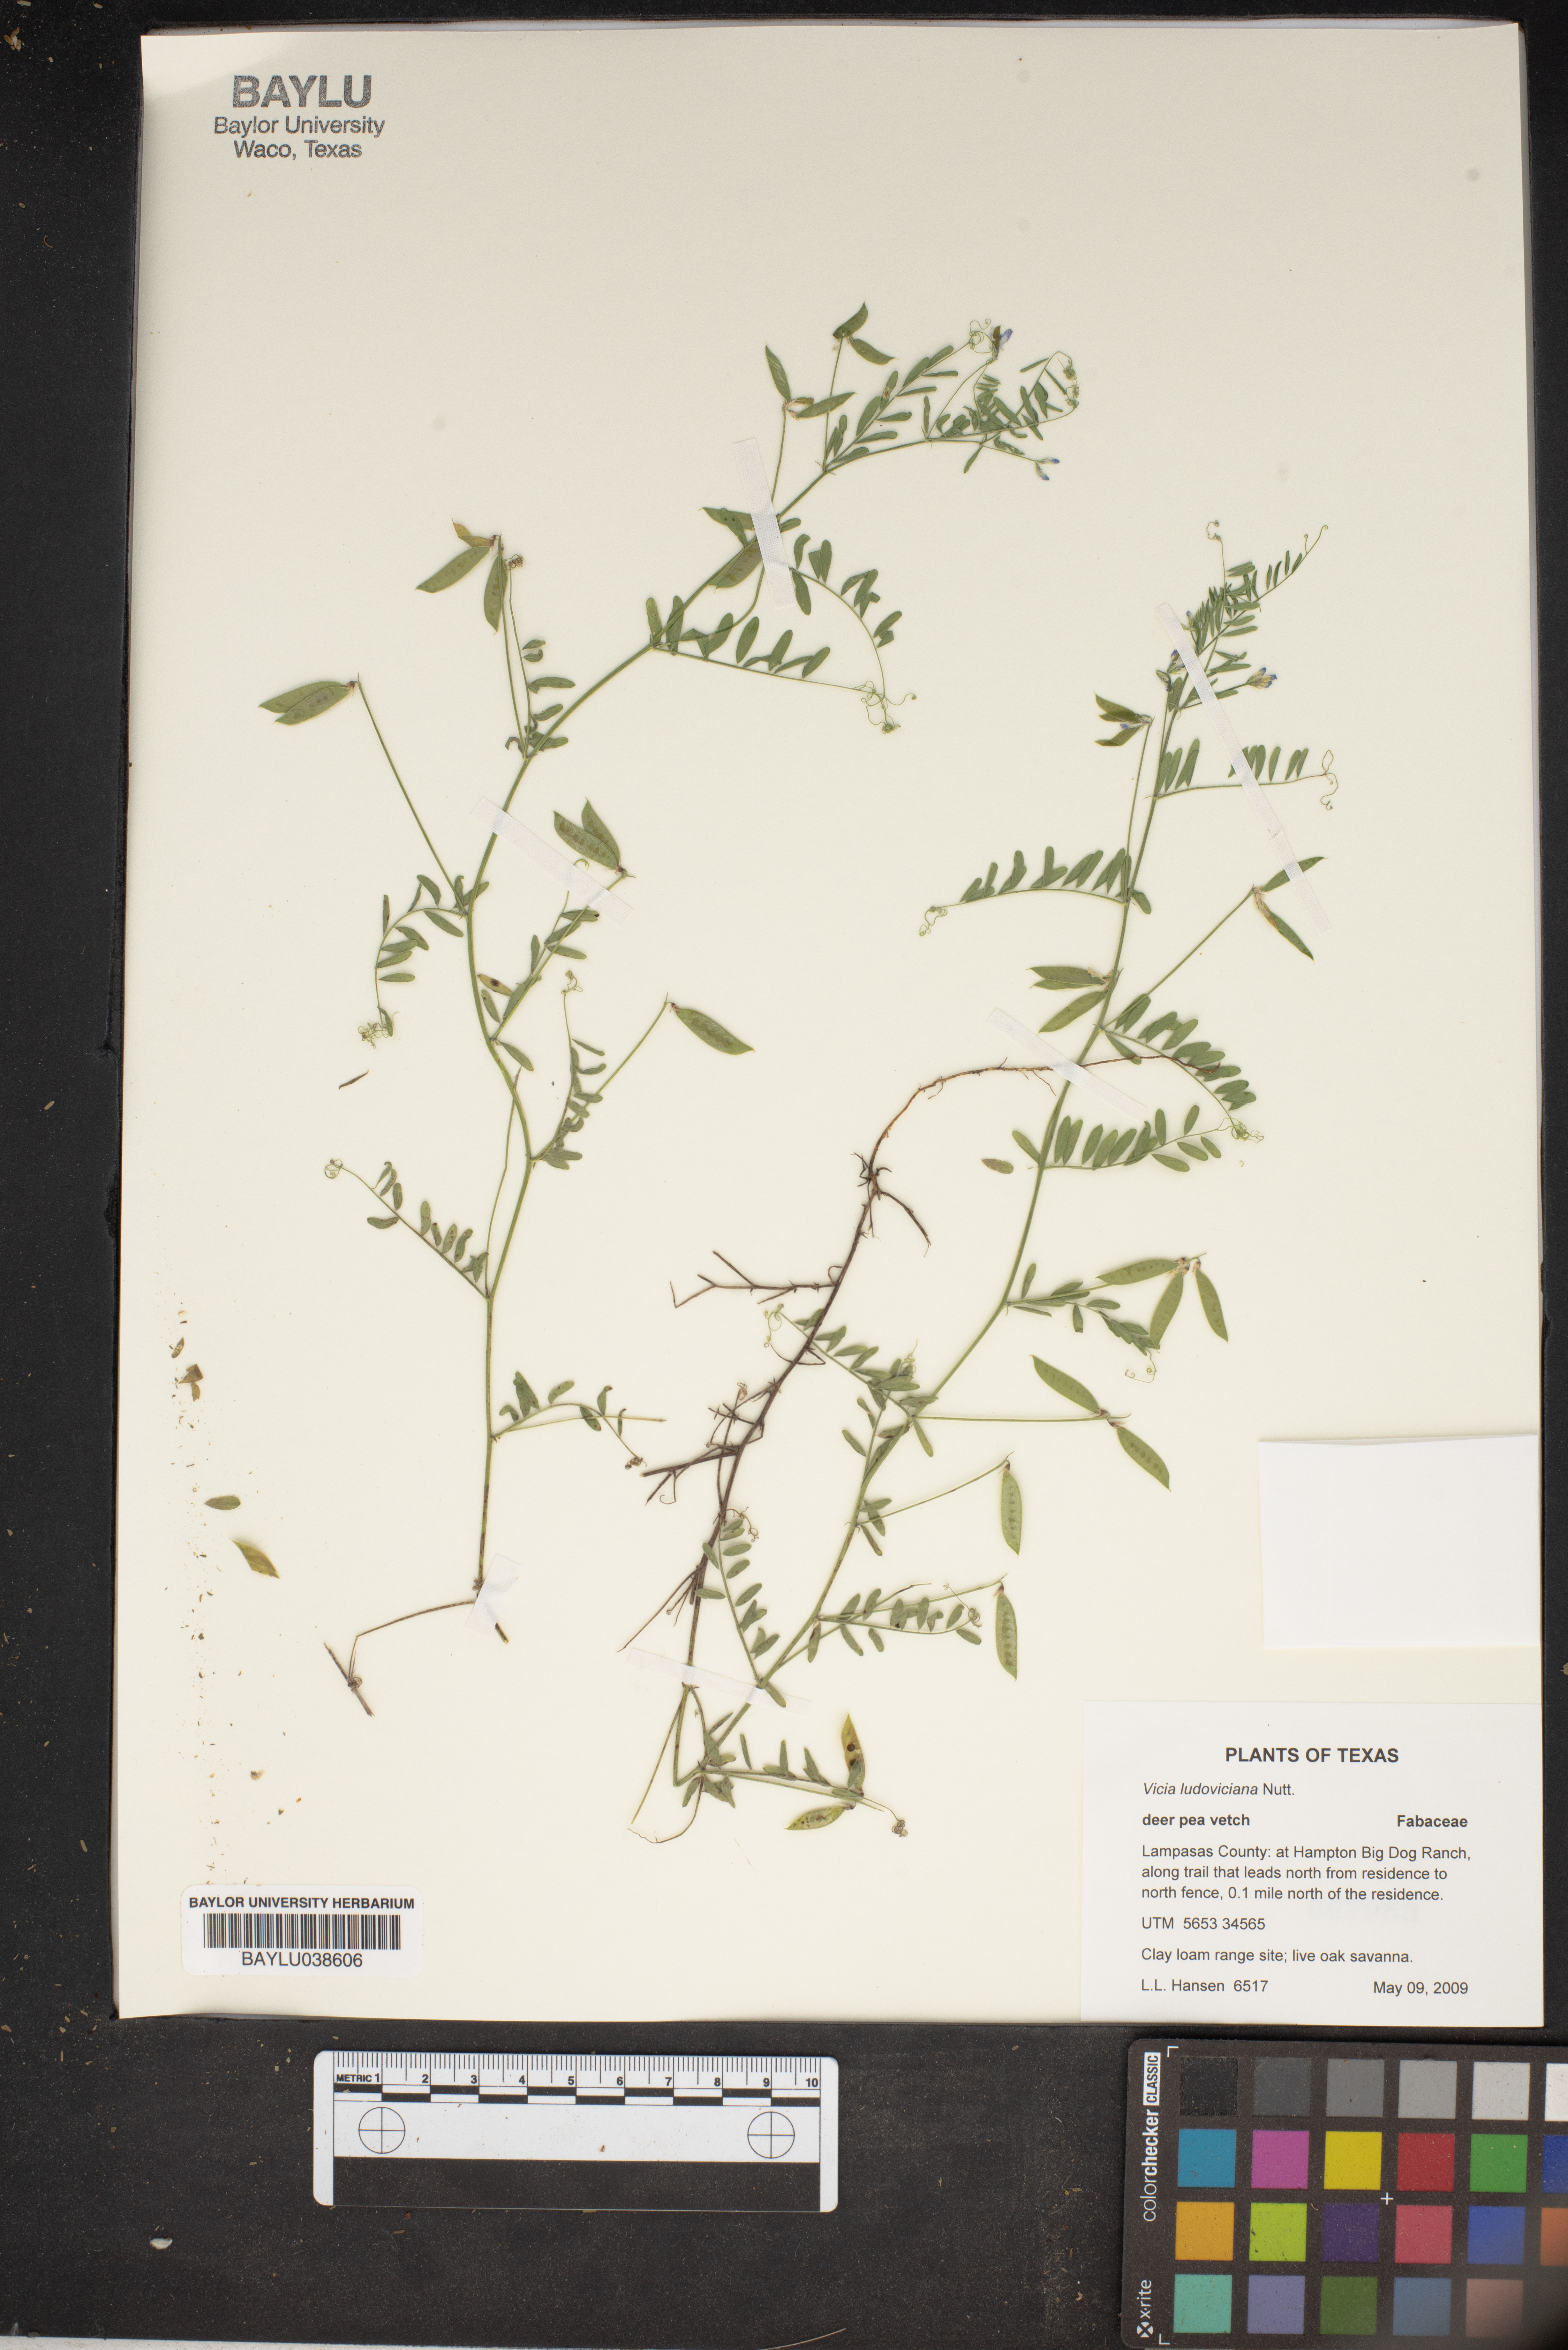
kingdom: Plantae
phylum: Tracheophyta
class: Magnoliopsida
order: Fabales
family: Fabaceae
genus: Vicia
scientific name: Vicia ludoviciana
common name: Louisiana vetch
